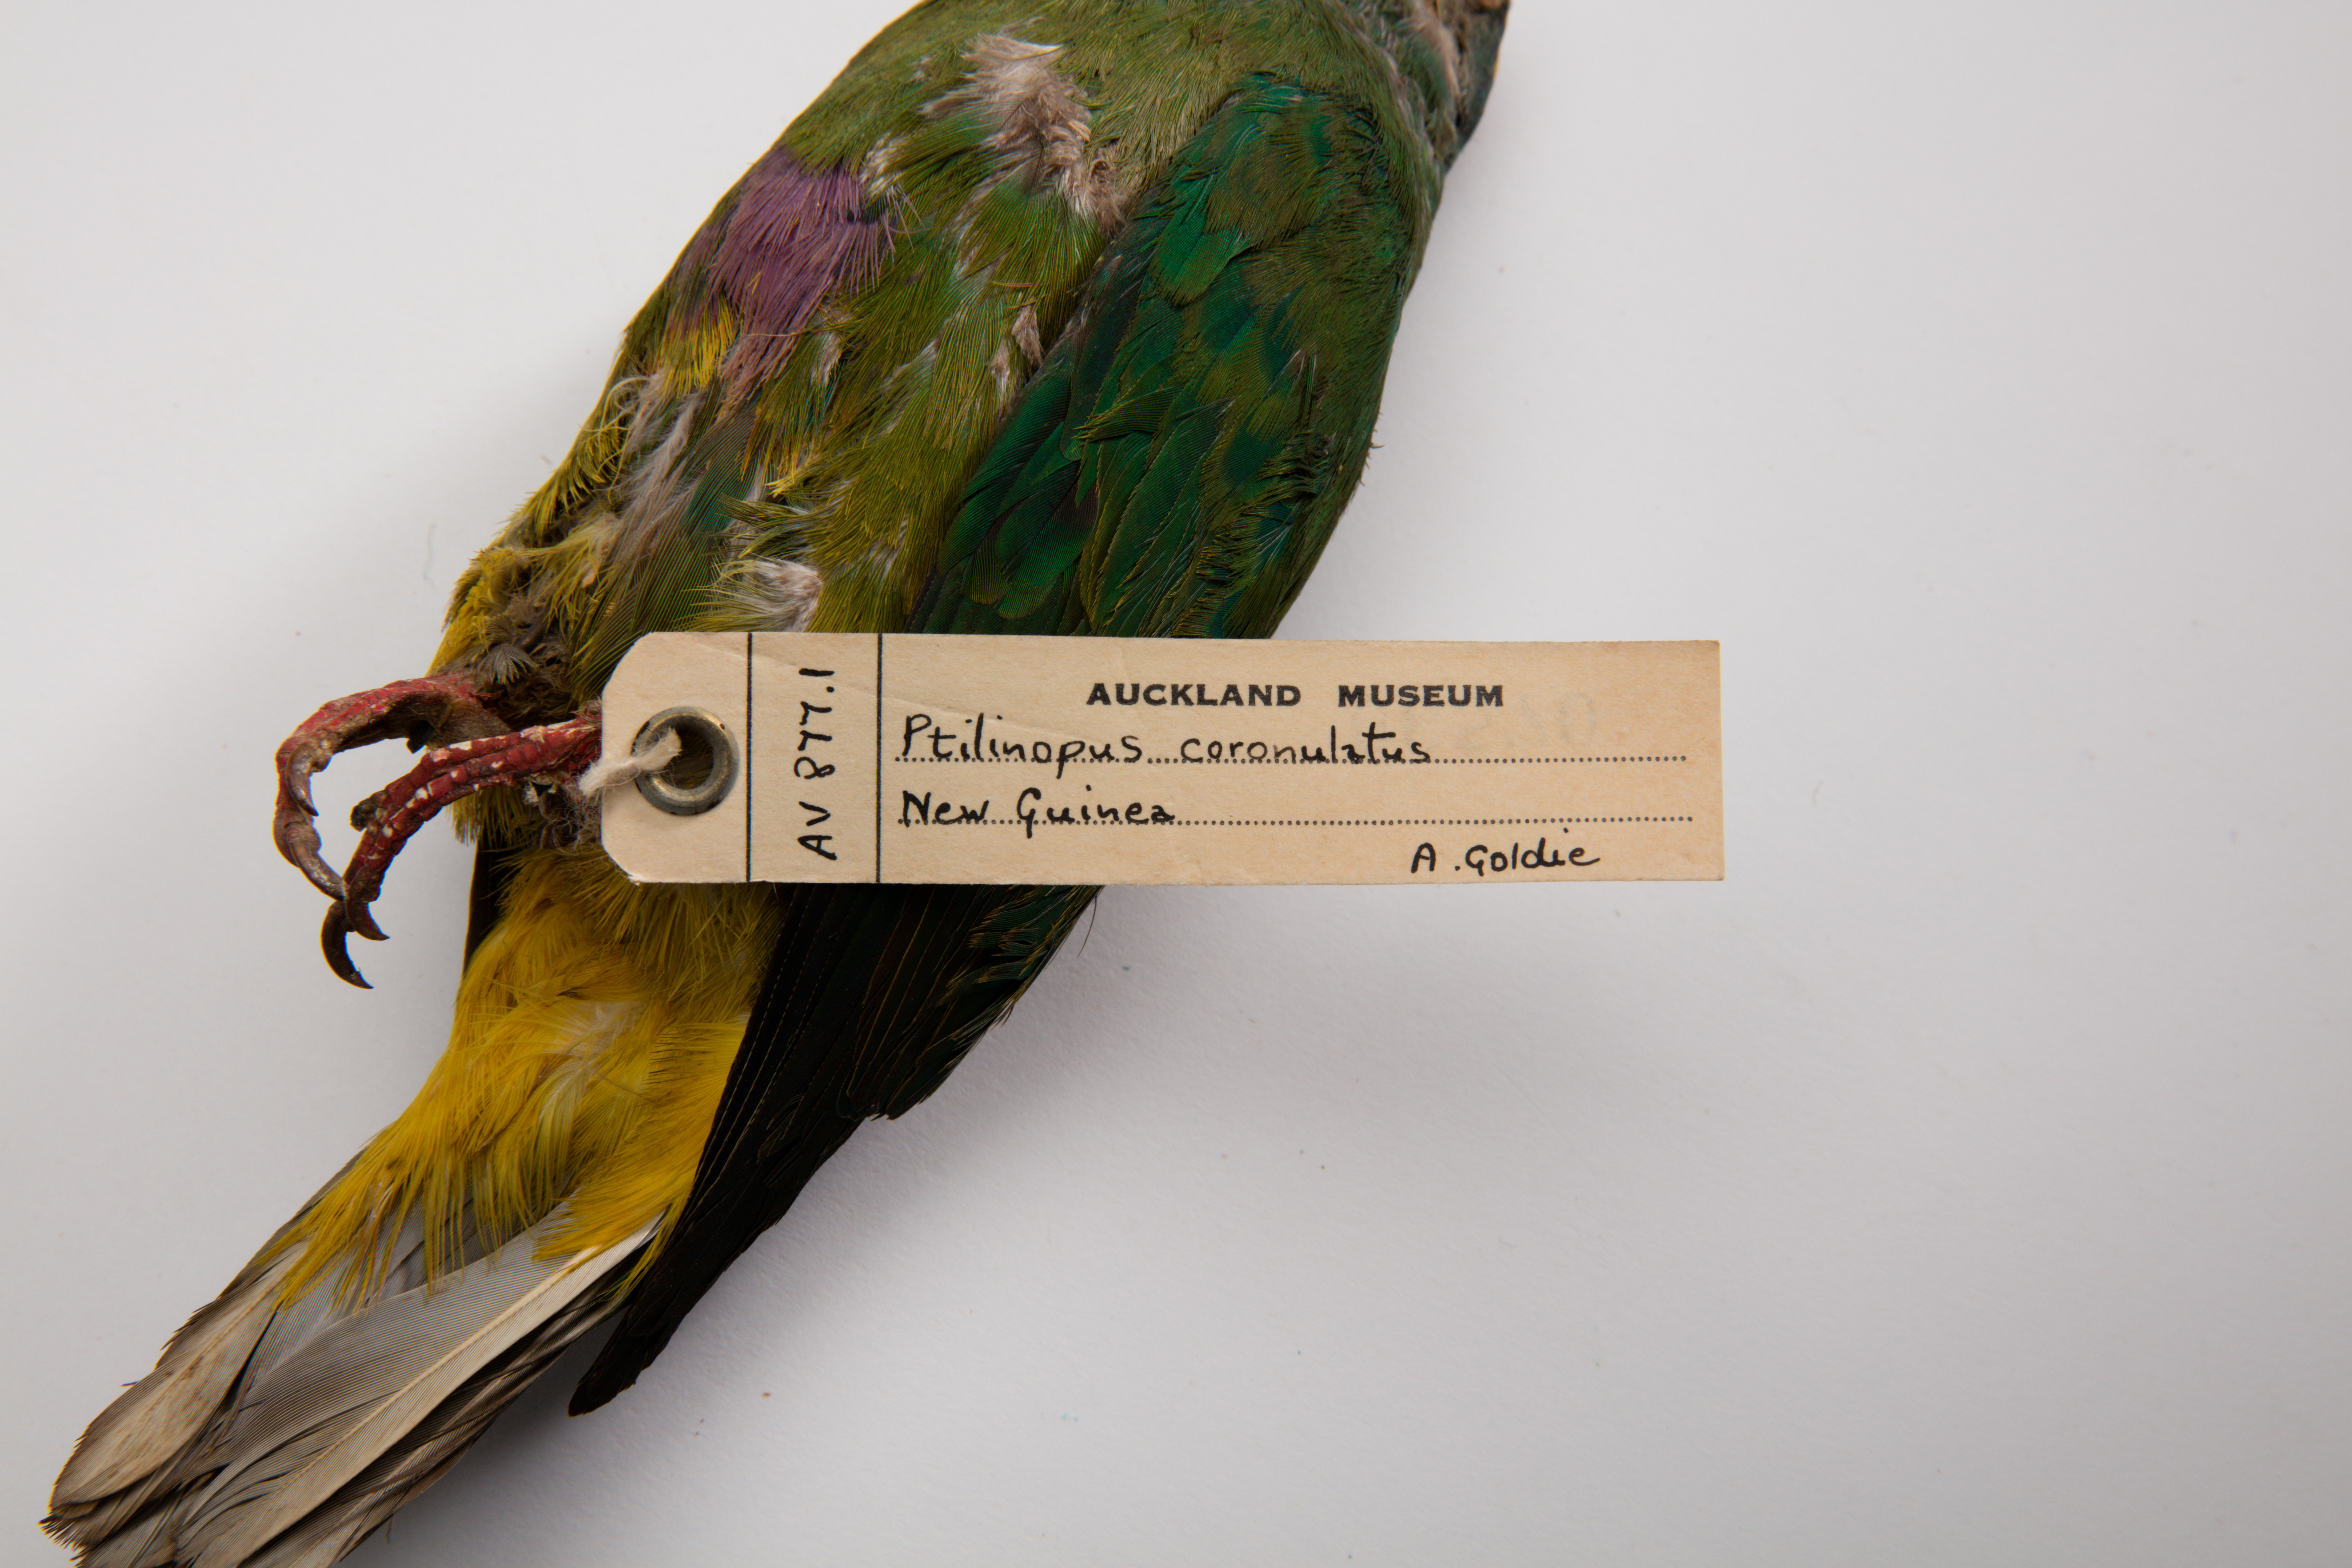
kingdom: Animalia
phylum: Chordata
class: Aves
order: Columbiformes
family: Columbidae
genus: Ptilinopus
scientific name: Ptilinopus coronulatus
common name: Coroneted fruit dove
